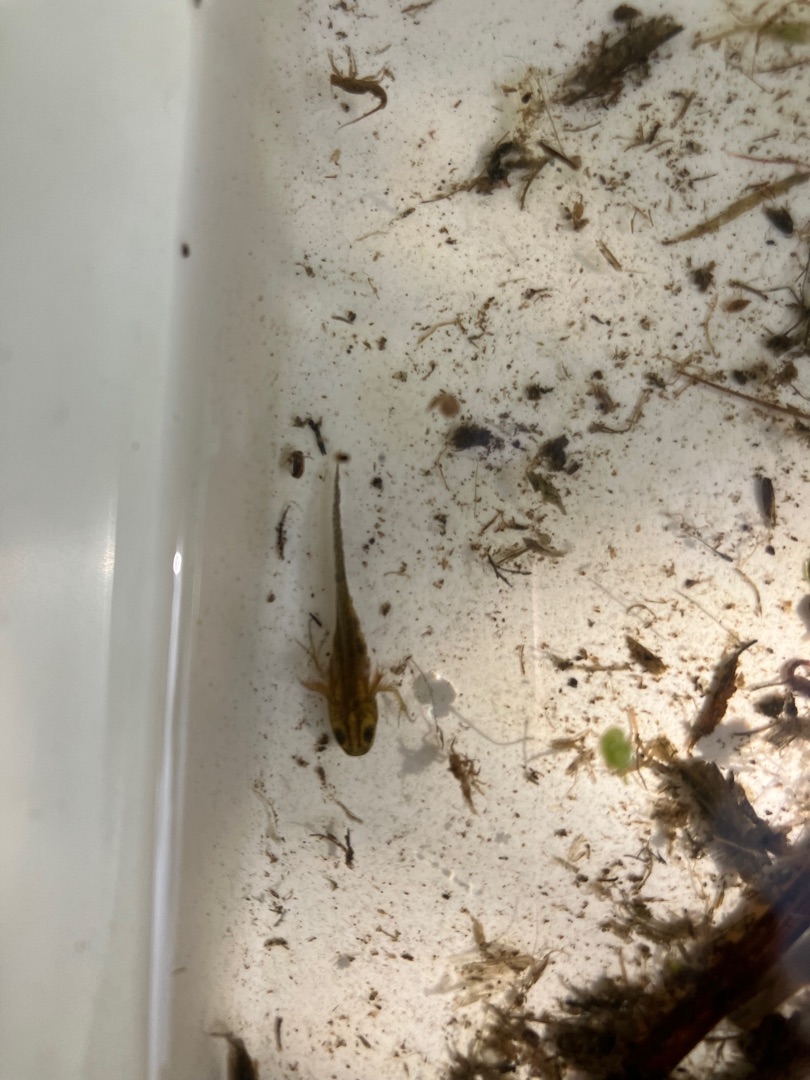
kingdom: Animalia
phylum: Chordata
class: Amphibia
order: Caudata
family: Salamandridae
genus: Lissotriton
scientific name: Lissotriton vulgaris
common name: Lille vandsalamander
